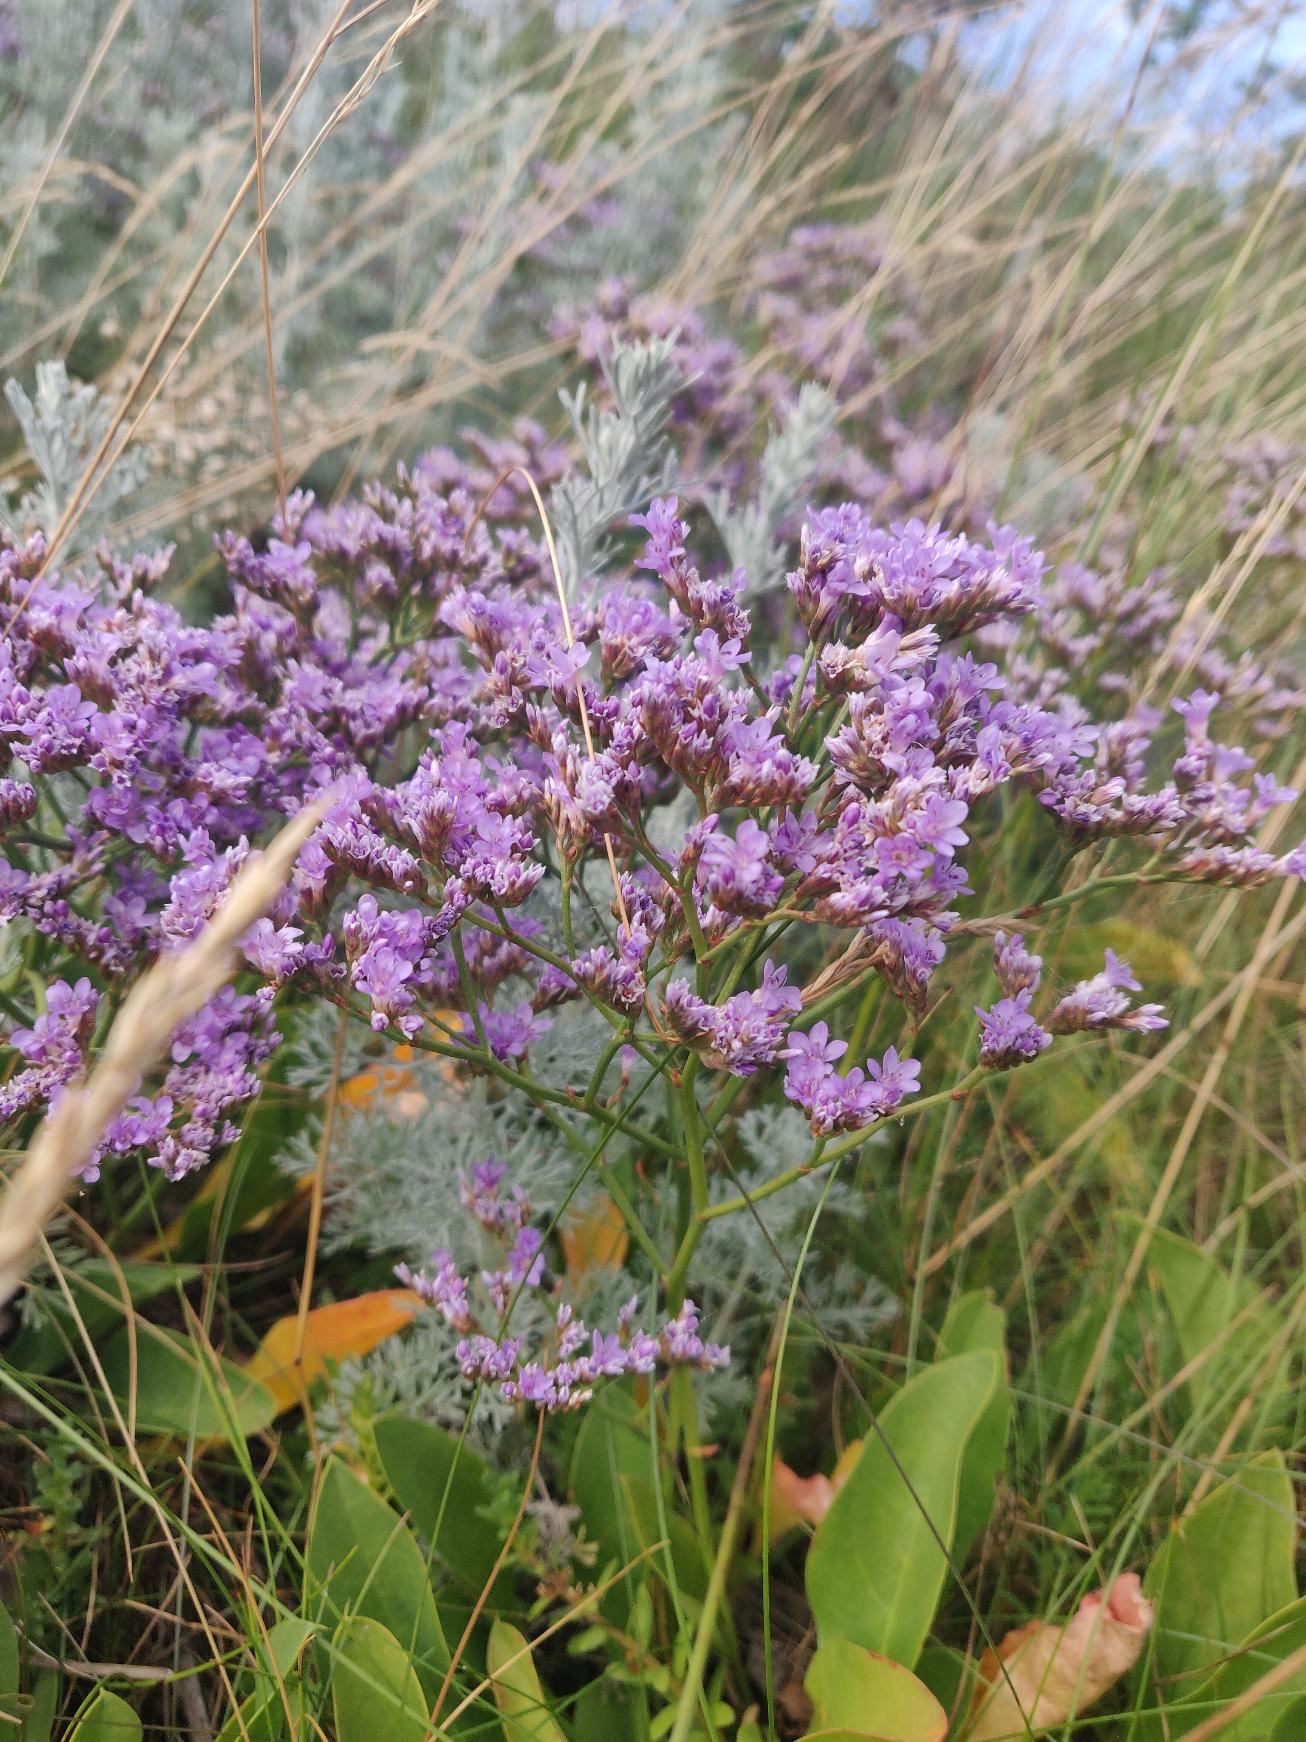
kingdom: Plantae
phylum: Tracheophyta
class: Magnoliopsida
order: Caryophyllales
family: Plumbaginaceae
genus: Limonium
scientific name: Limonium vulgare
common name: Tætblomstret hindebæger
